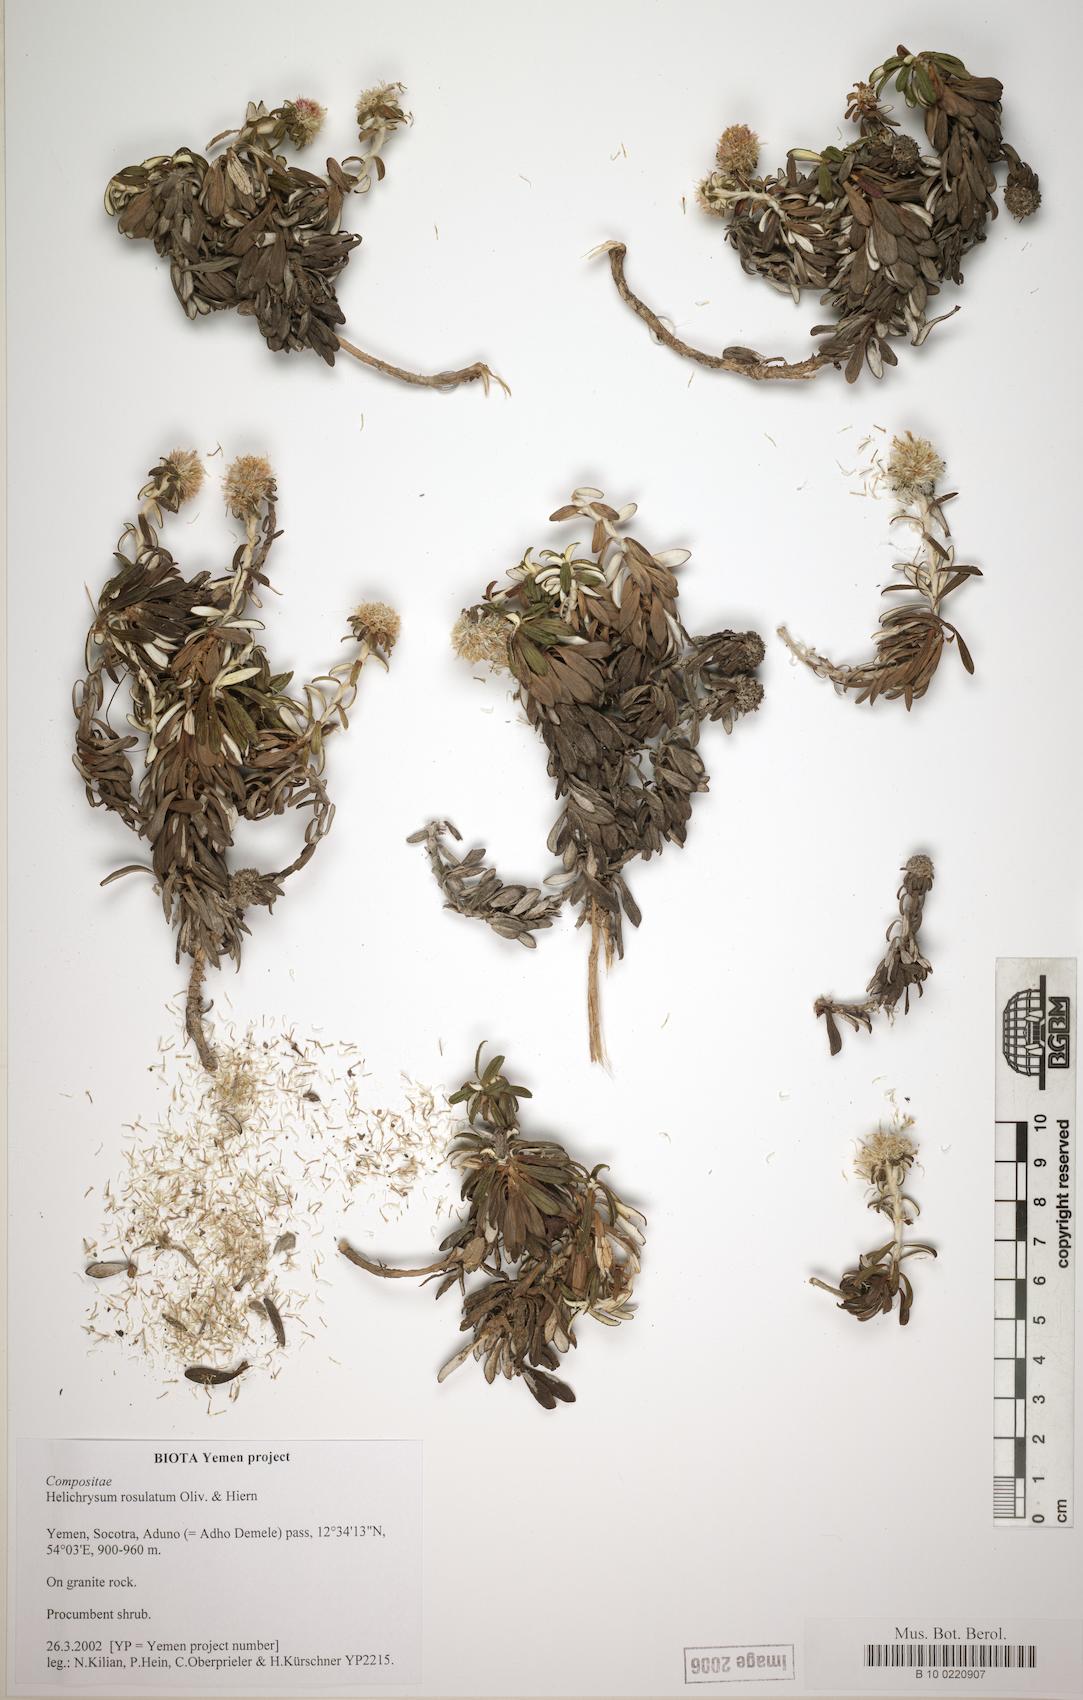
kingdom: Plantae
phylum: Tracheophyta
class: Magnoliopsida
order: Asterales
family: Asteraceae
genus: Libinhania
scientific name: Libinhania rosulata
